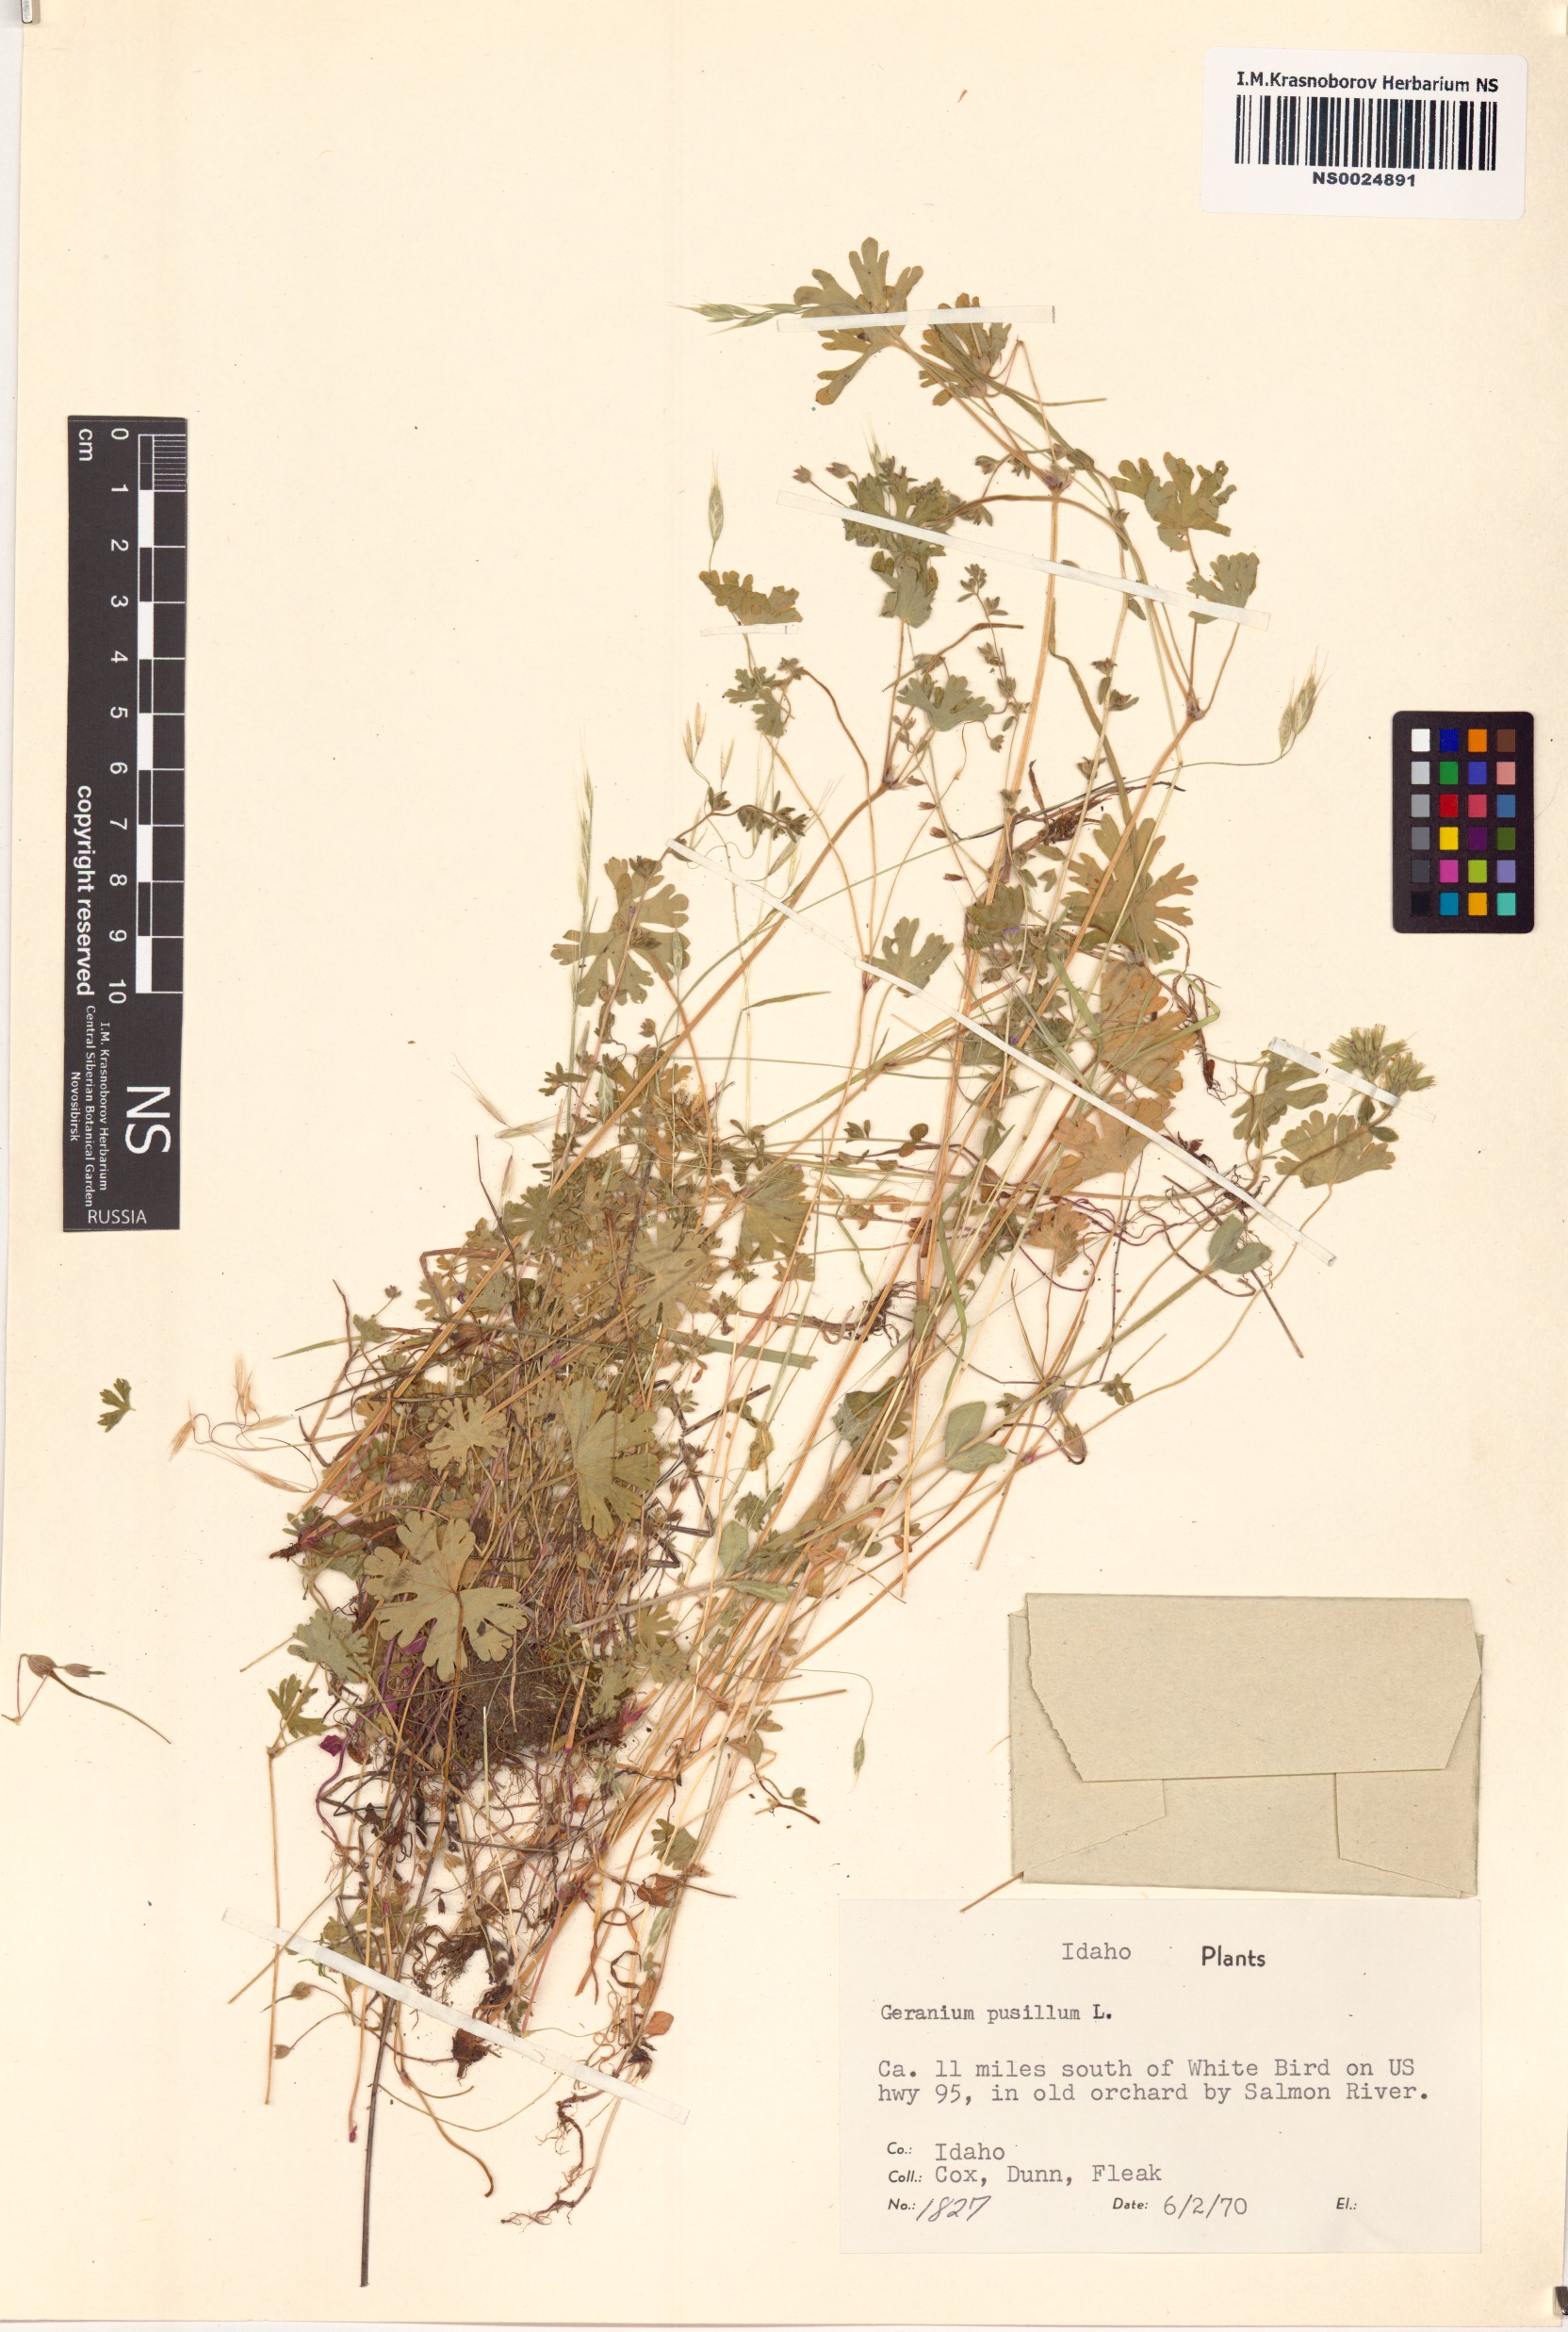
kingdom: Plantae
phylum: Tracheophyta
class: Magnoliopsida
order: Geraniales
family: Geraniaceae
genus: Geranium
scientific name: Geranium pusillum
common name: Small geranium
